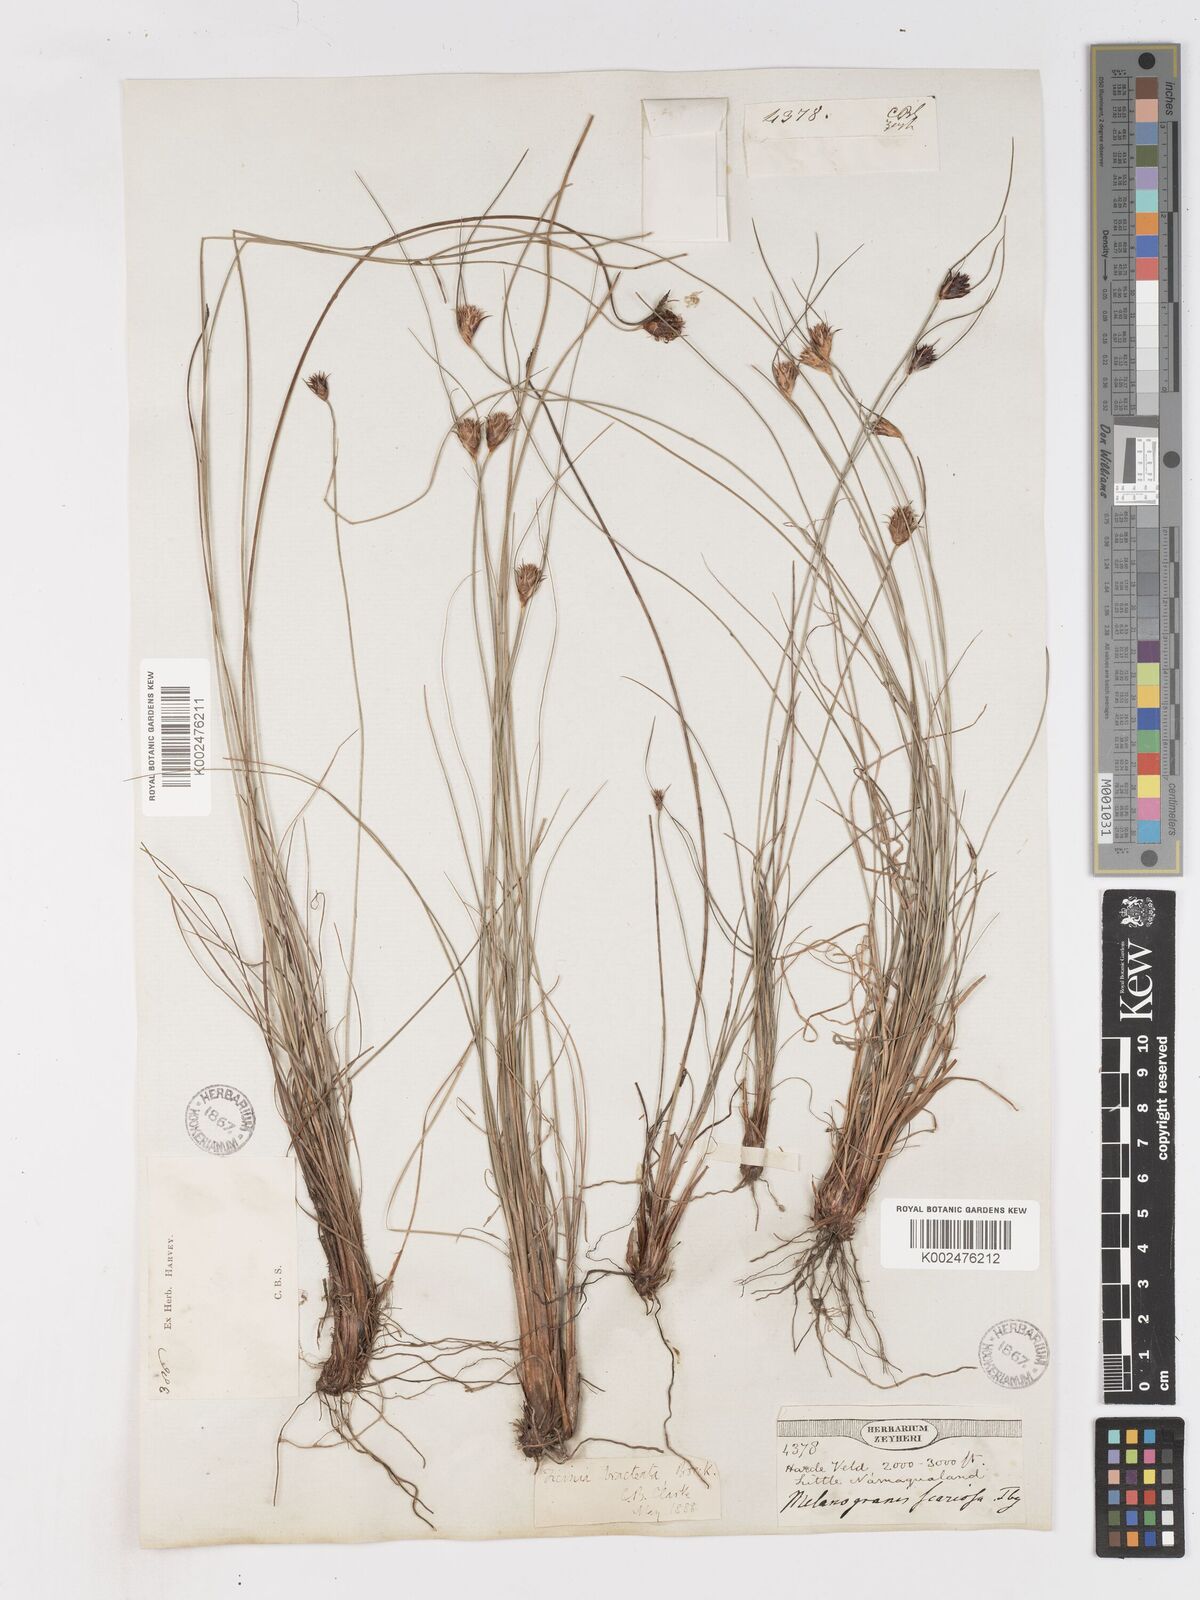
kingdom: Plantae
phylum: Tracheophyta
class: Liliopsida
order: Poales
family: Cyperaceae
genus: Ficinia
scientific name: Ficinia nigrescens
